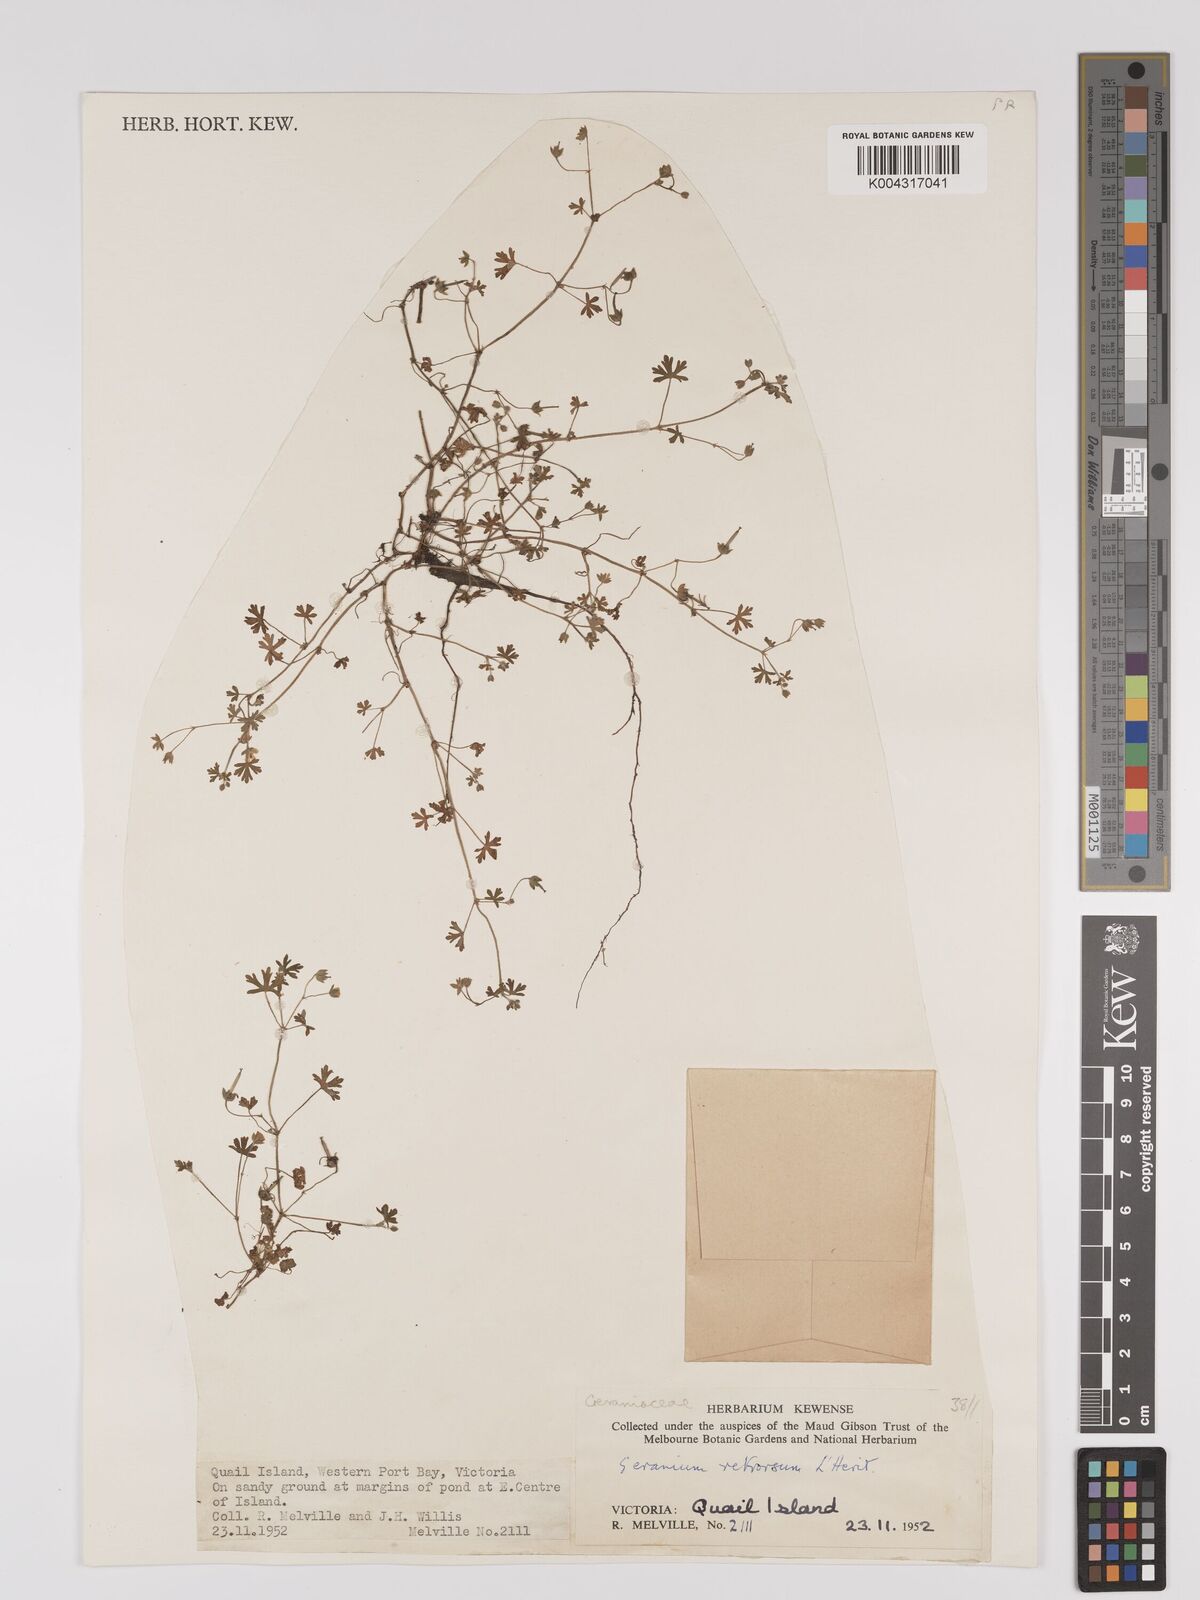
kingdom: Plantae
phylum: Tracheophyta
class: Magnoliopsida
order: Geraniales
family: Geraniaceae
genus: Geranium
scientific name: Geranium retrorsum
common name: New zealand geranium
